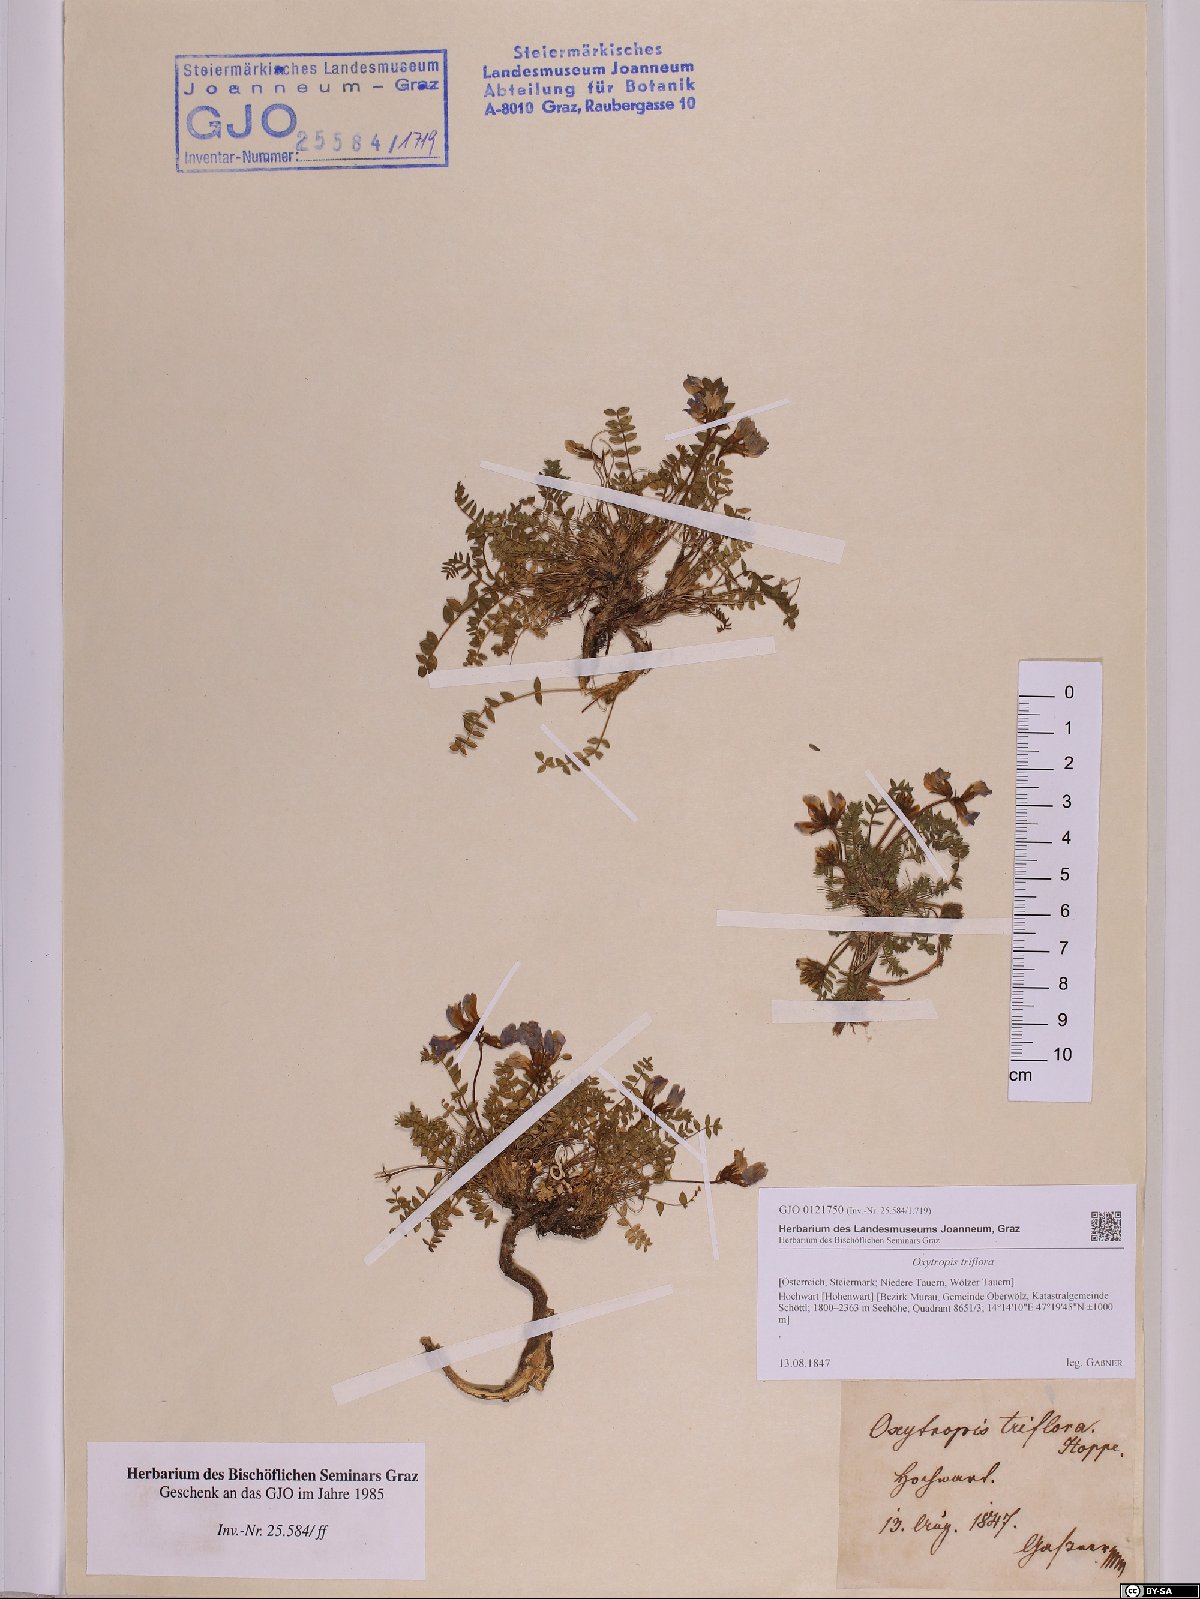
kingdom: Plantae
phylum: Tracheophyta
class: Magnoliopsida
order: Fabales
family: Fabaceae
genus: Oxytropis
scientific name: Oxytropis triflora
